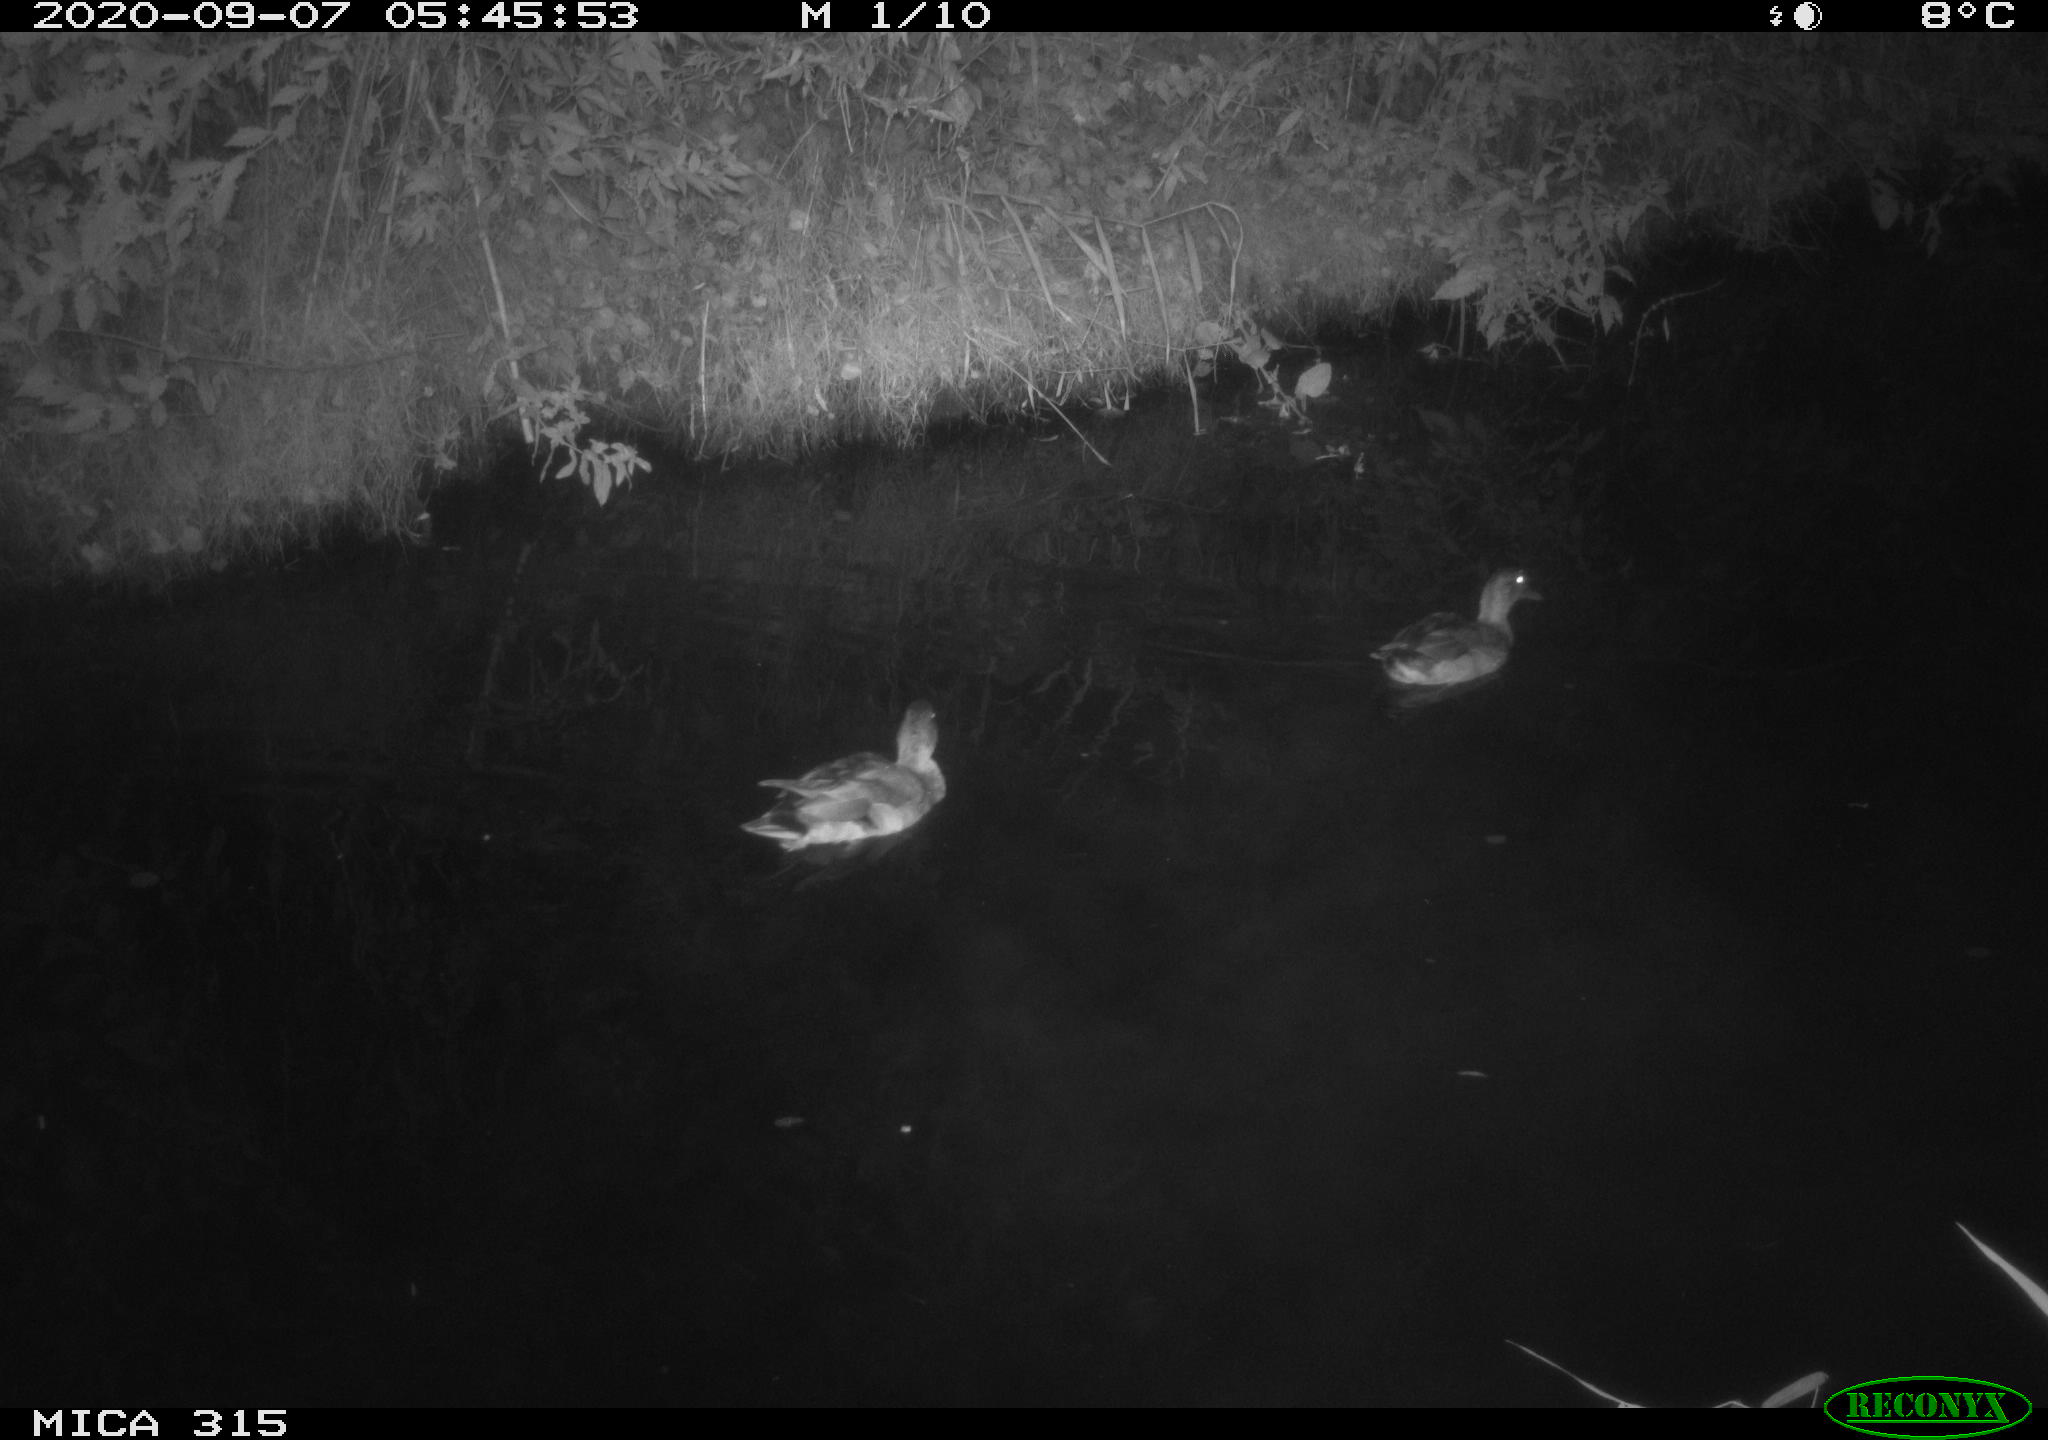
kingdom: Animalia
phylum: Chordata
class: Aves
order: Anseriformes
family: Anatidae
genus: Anas
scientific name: Anas platyrhynchos
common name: Mallard
